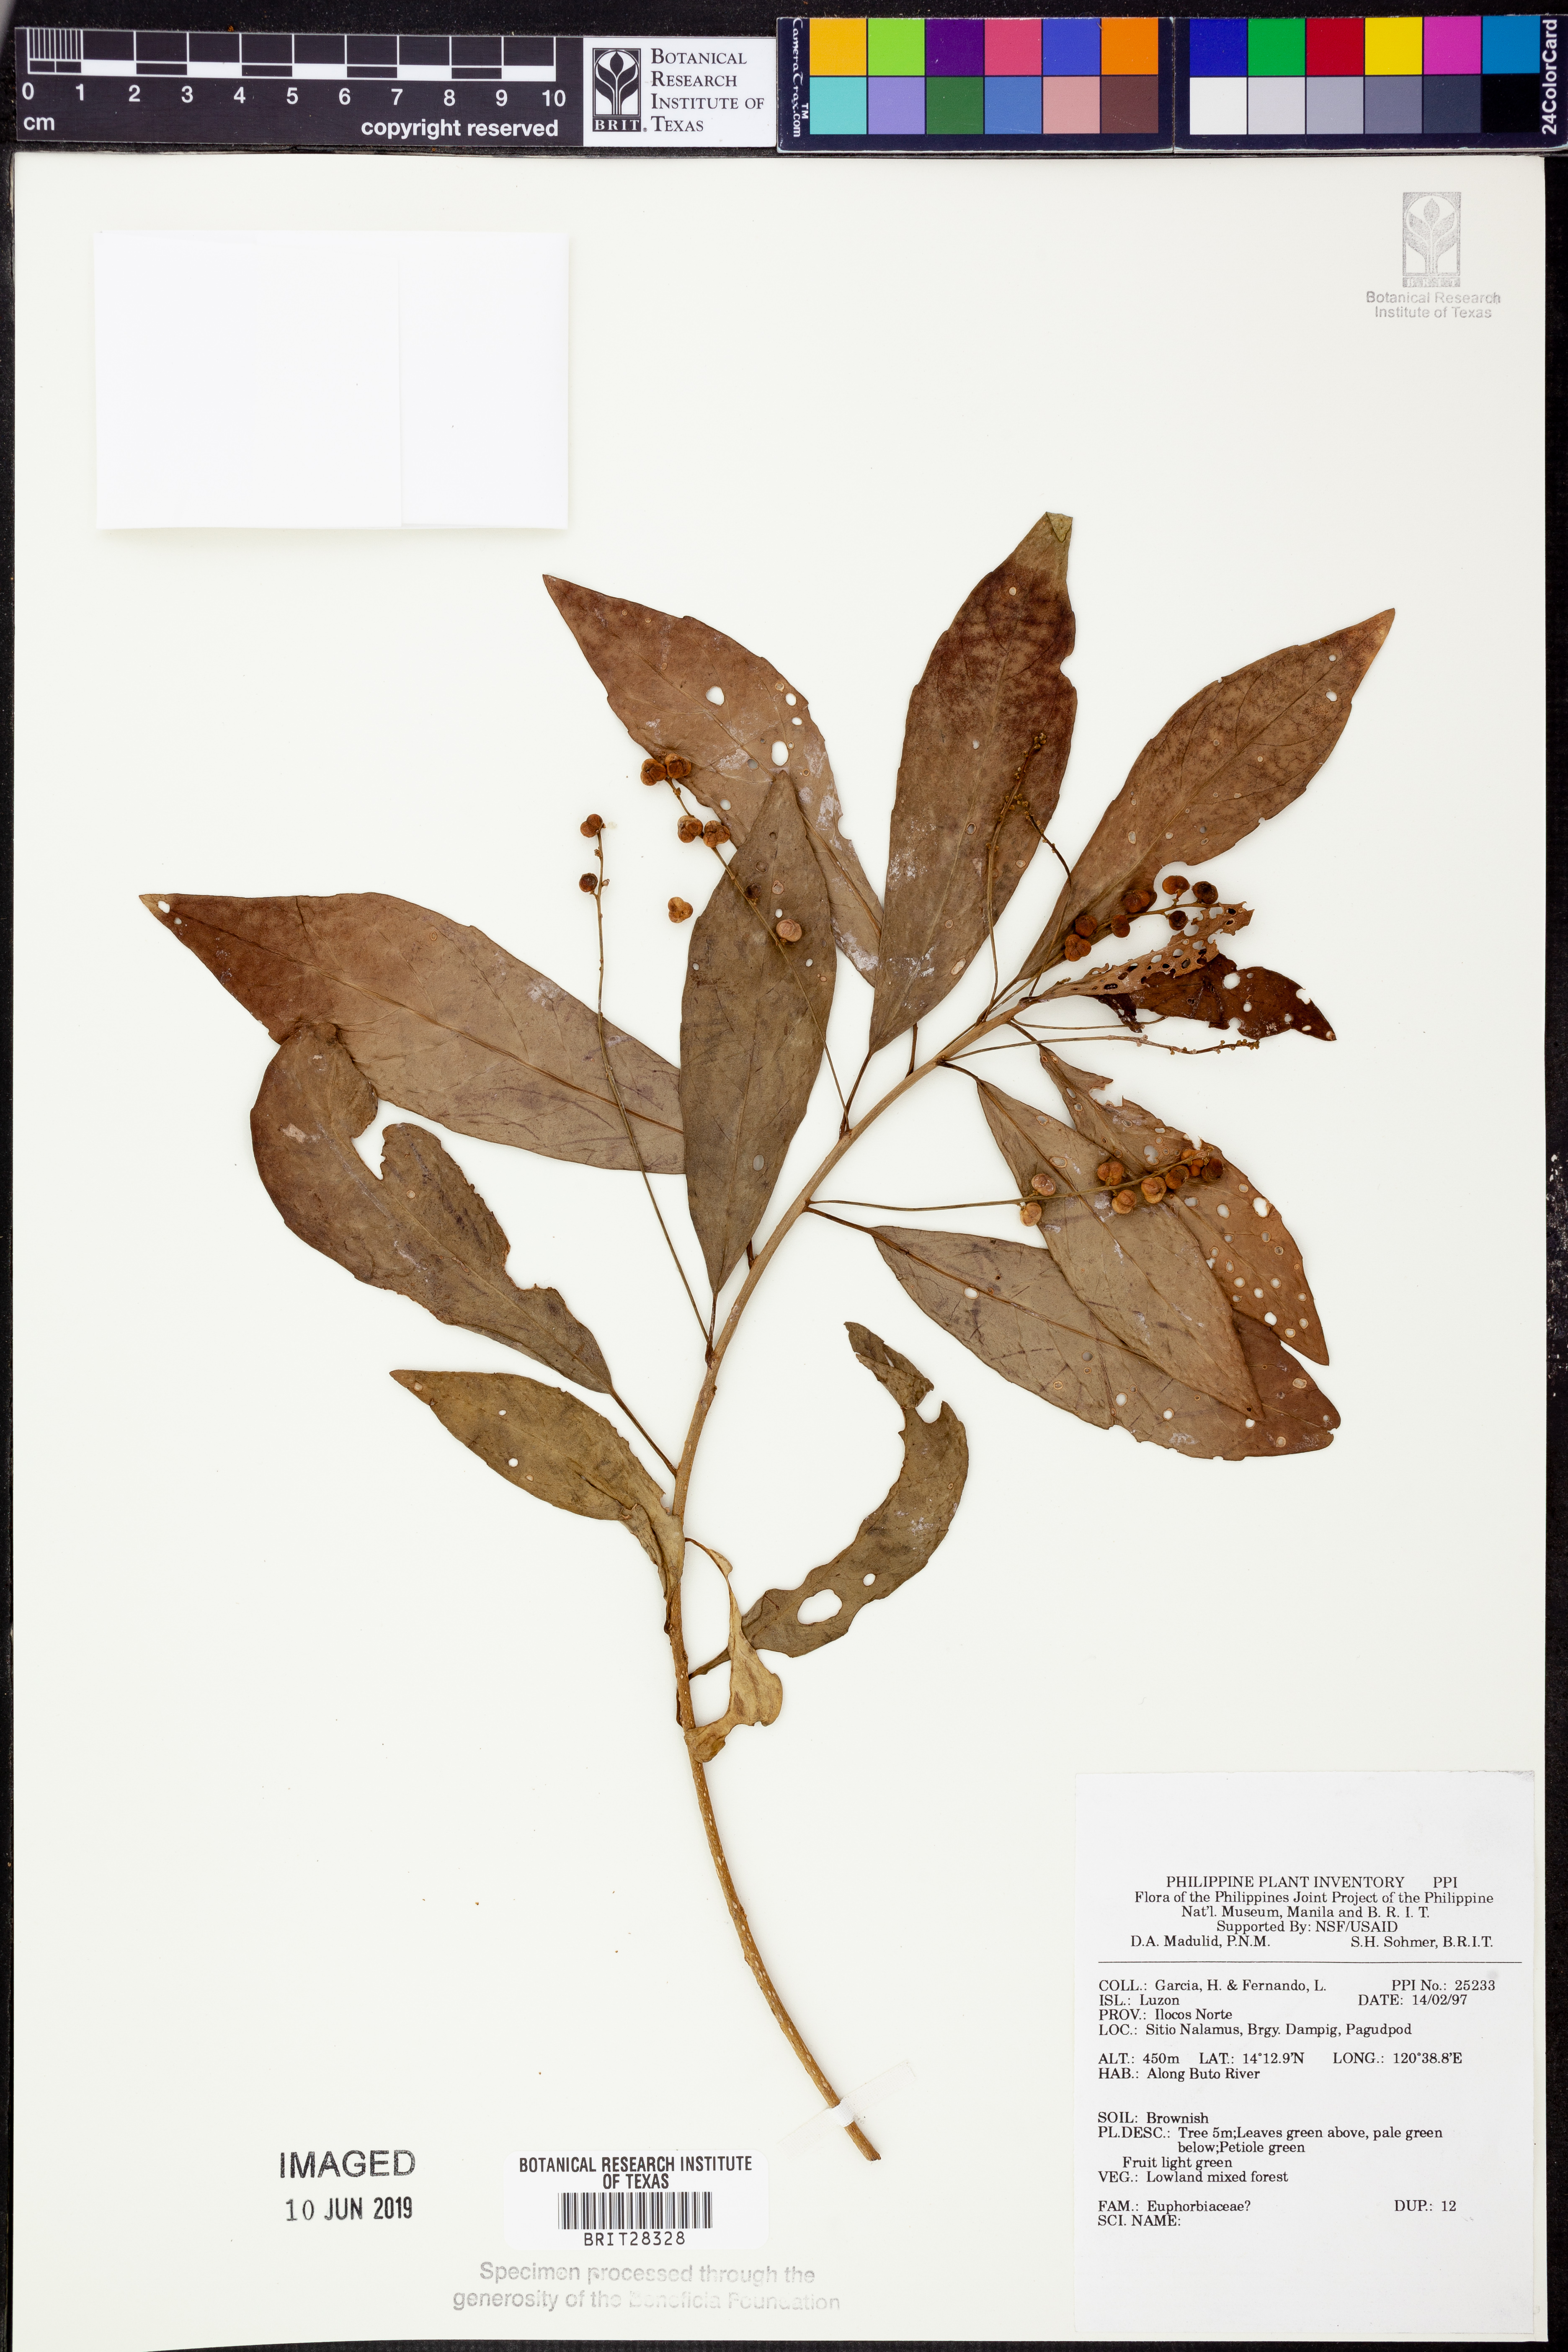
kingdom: Plantae
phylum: Tracheophyta
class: Magnoliopsida
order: Malpighiales
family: Euphorbiaceae
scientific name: Euphorbiaceae
